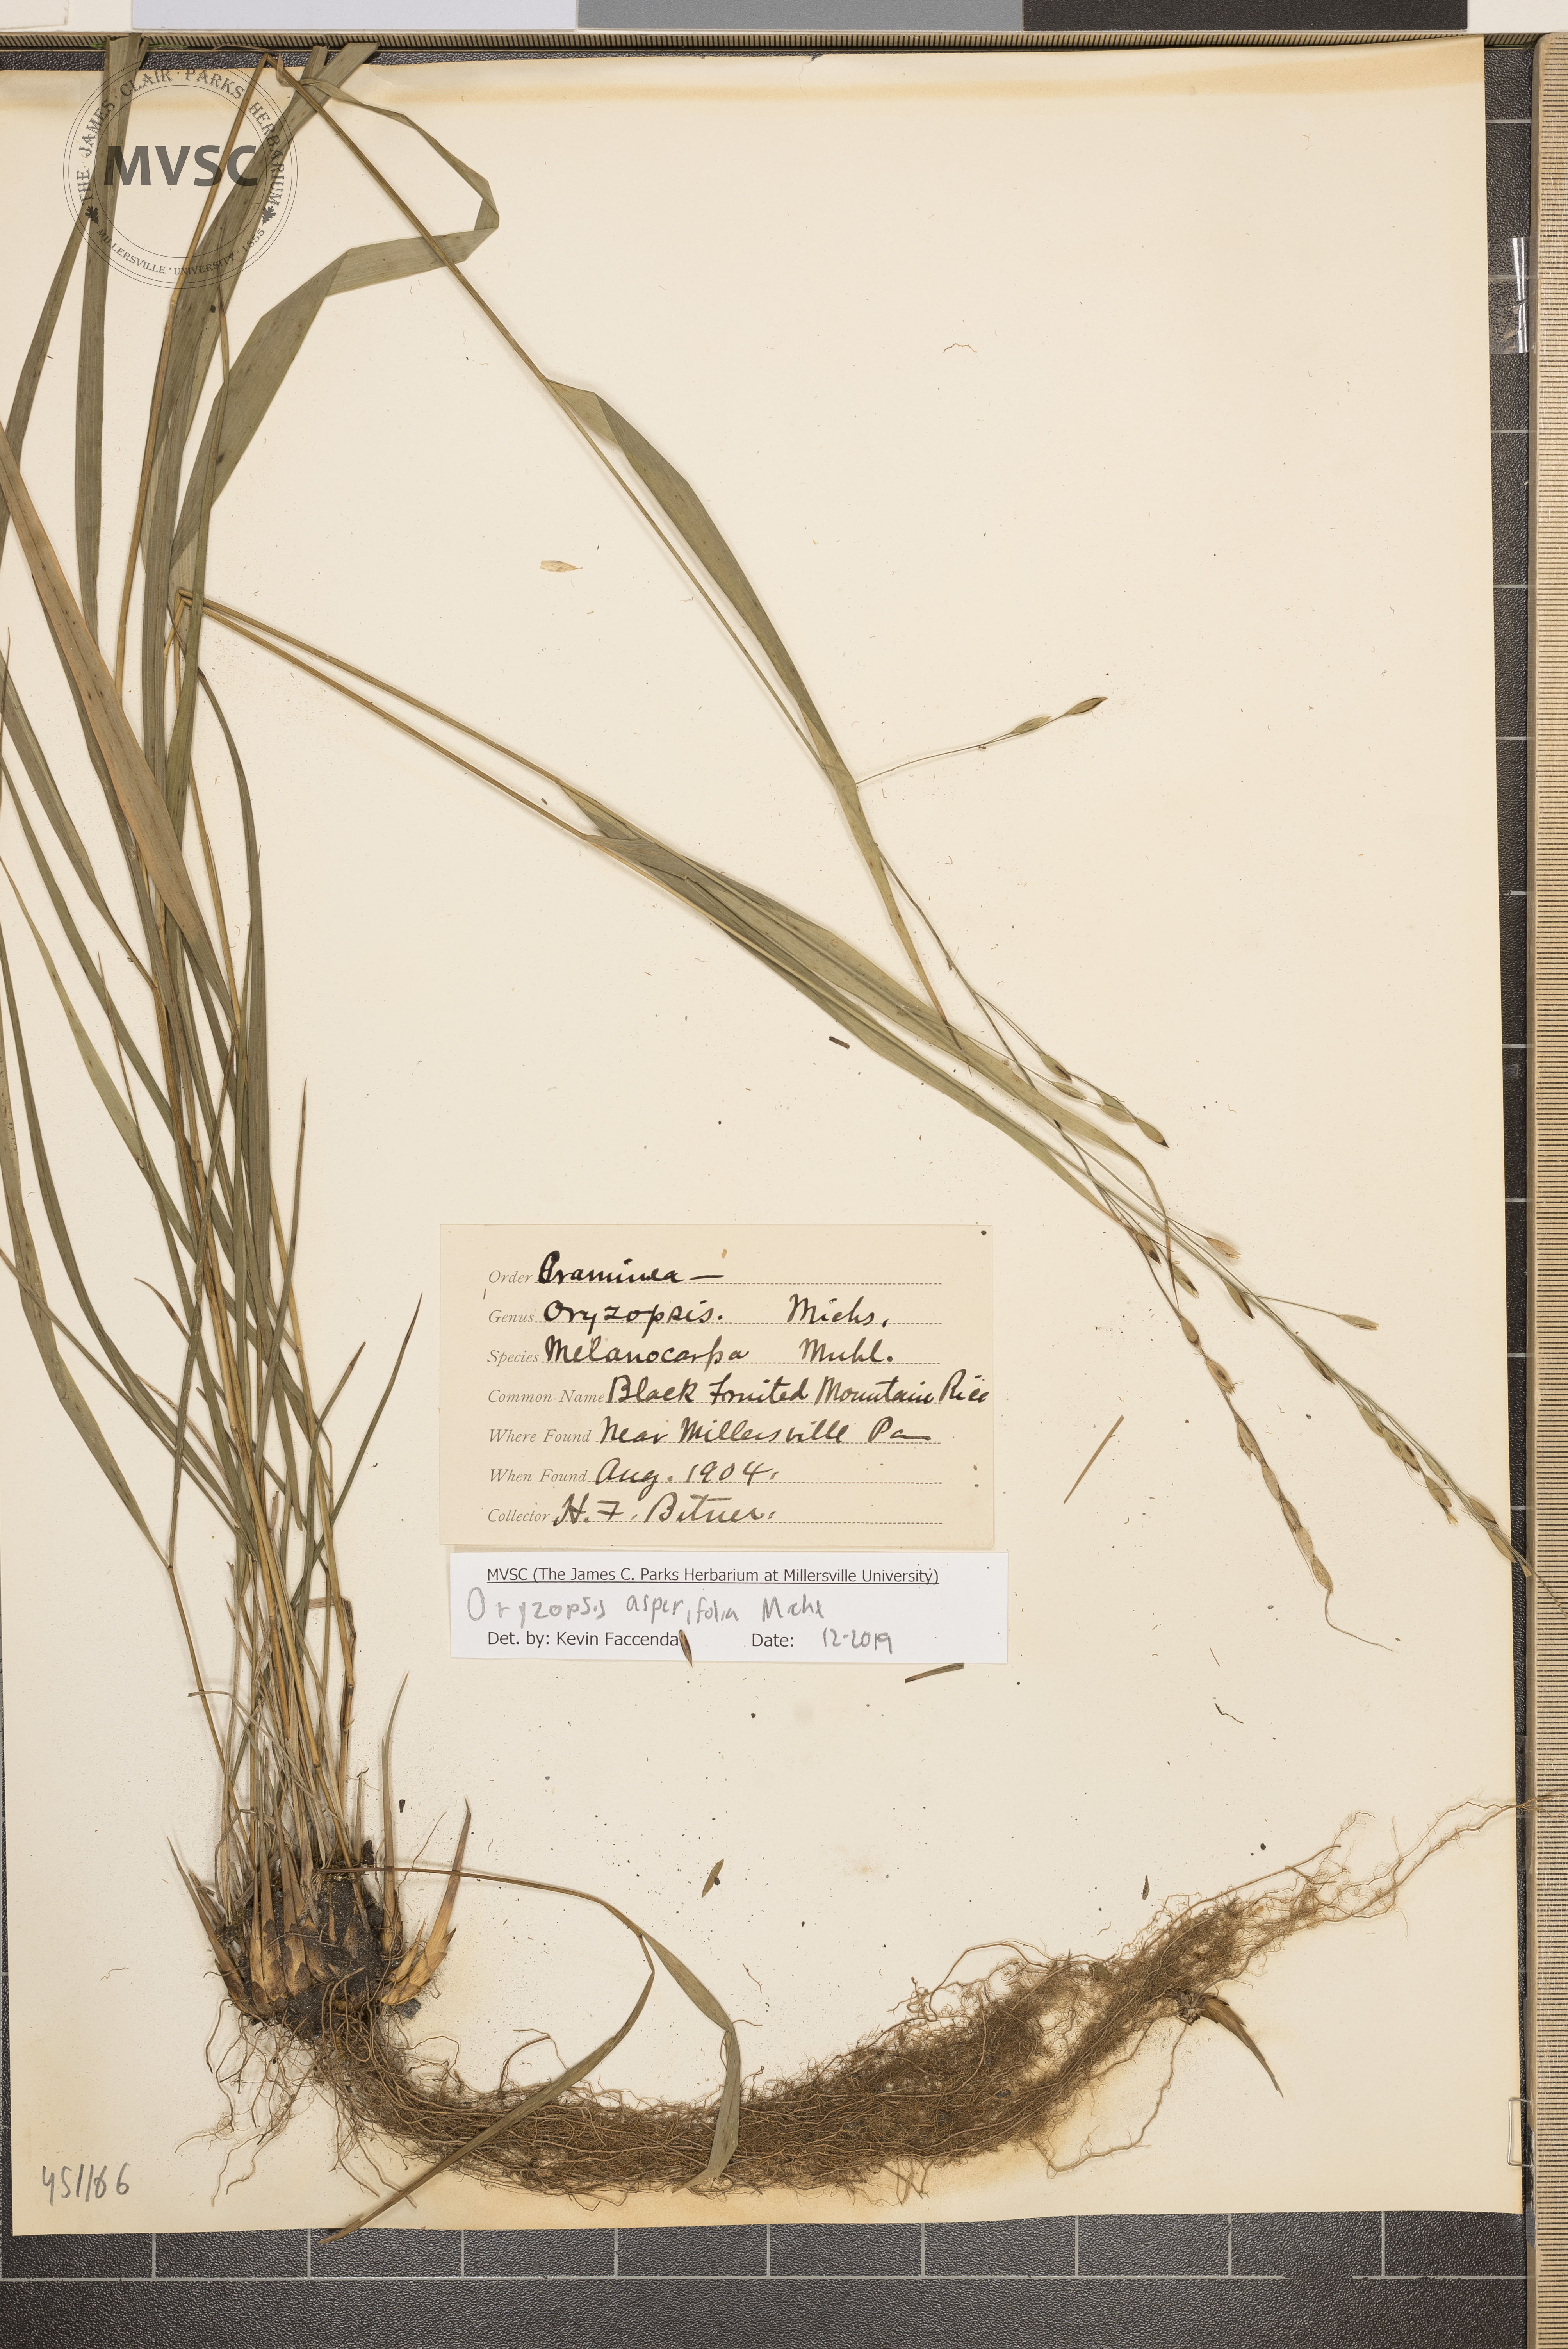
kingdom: Plantae
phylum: Tracheophyta
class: Liliopsida
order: Poales
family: Poaceae
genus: Oryzopsis
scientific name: Oryzopsis asperifolia
